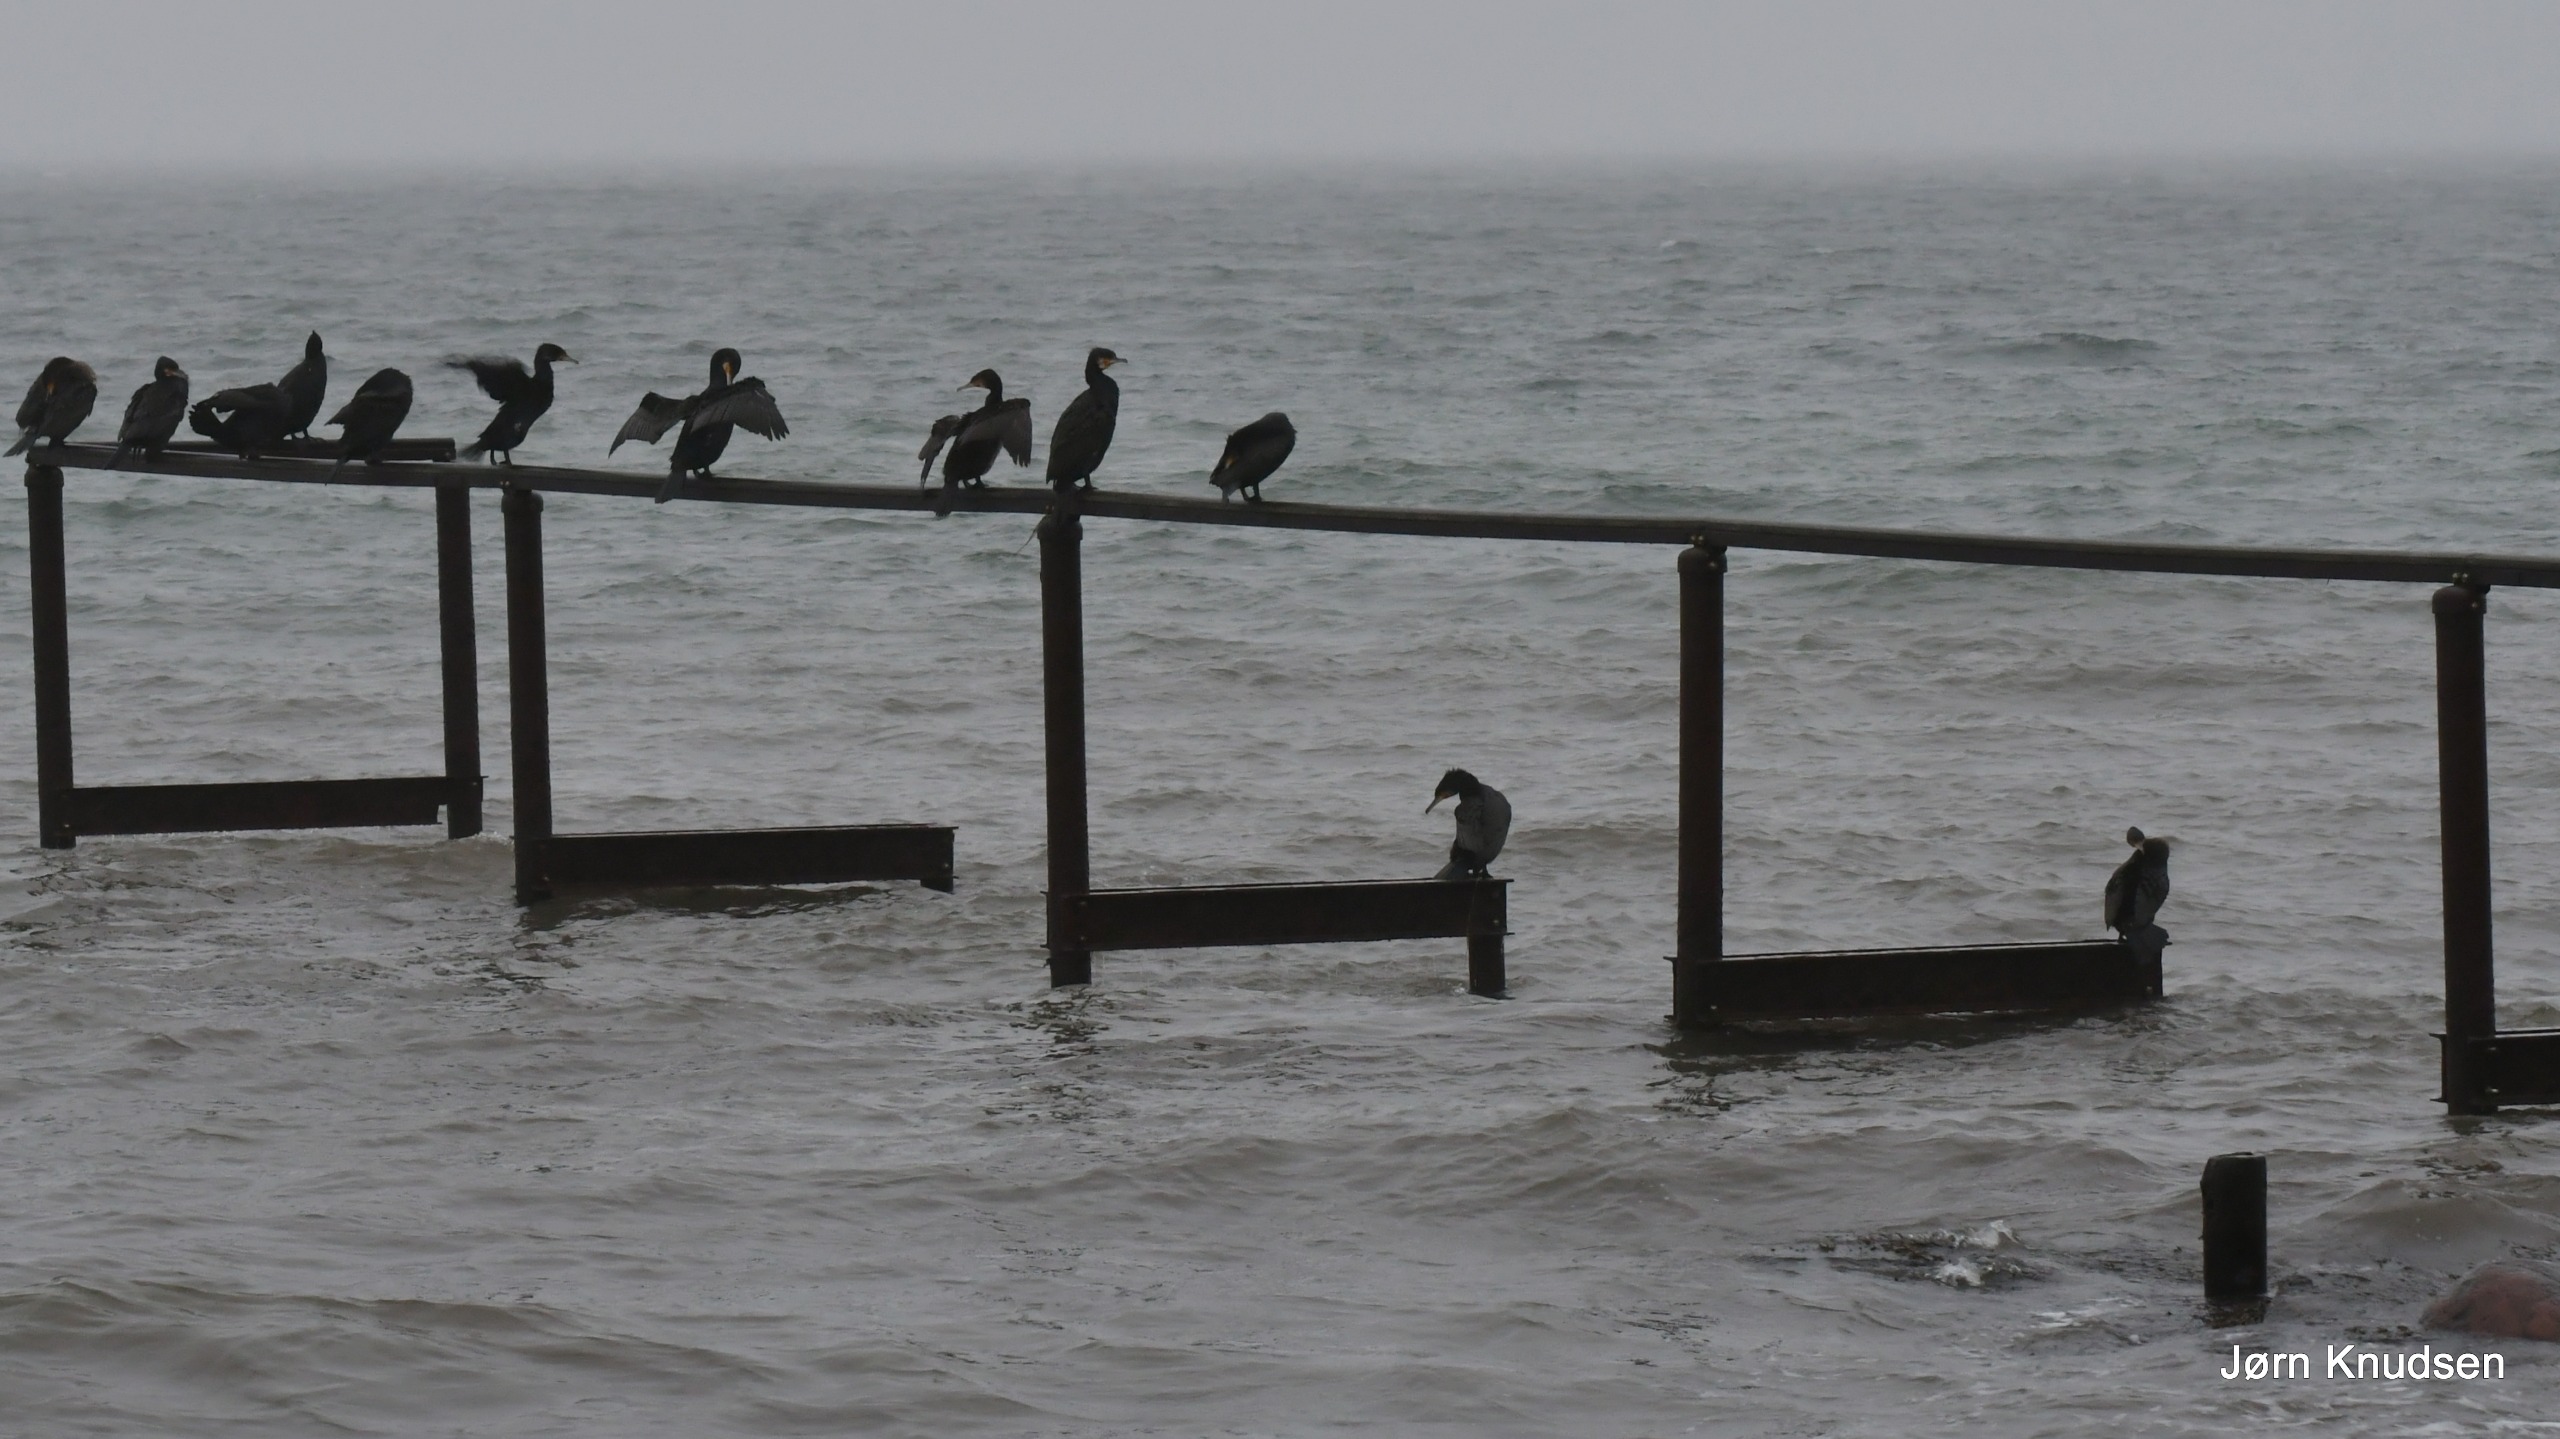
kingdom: Animalia
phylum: Chordata
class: Aves
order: Suliformes
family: Phalacrocoracidae
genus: Phalacrocorax
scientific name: Phalacrocorax carbo
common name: Skarv
